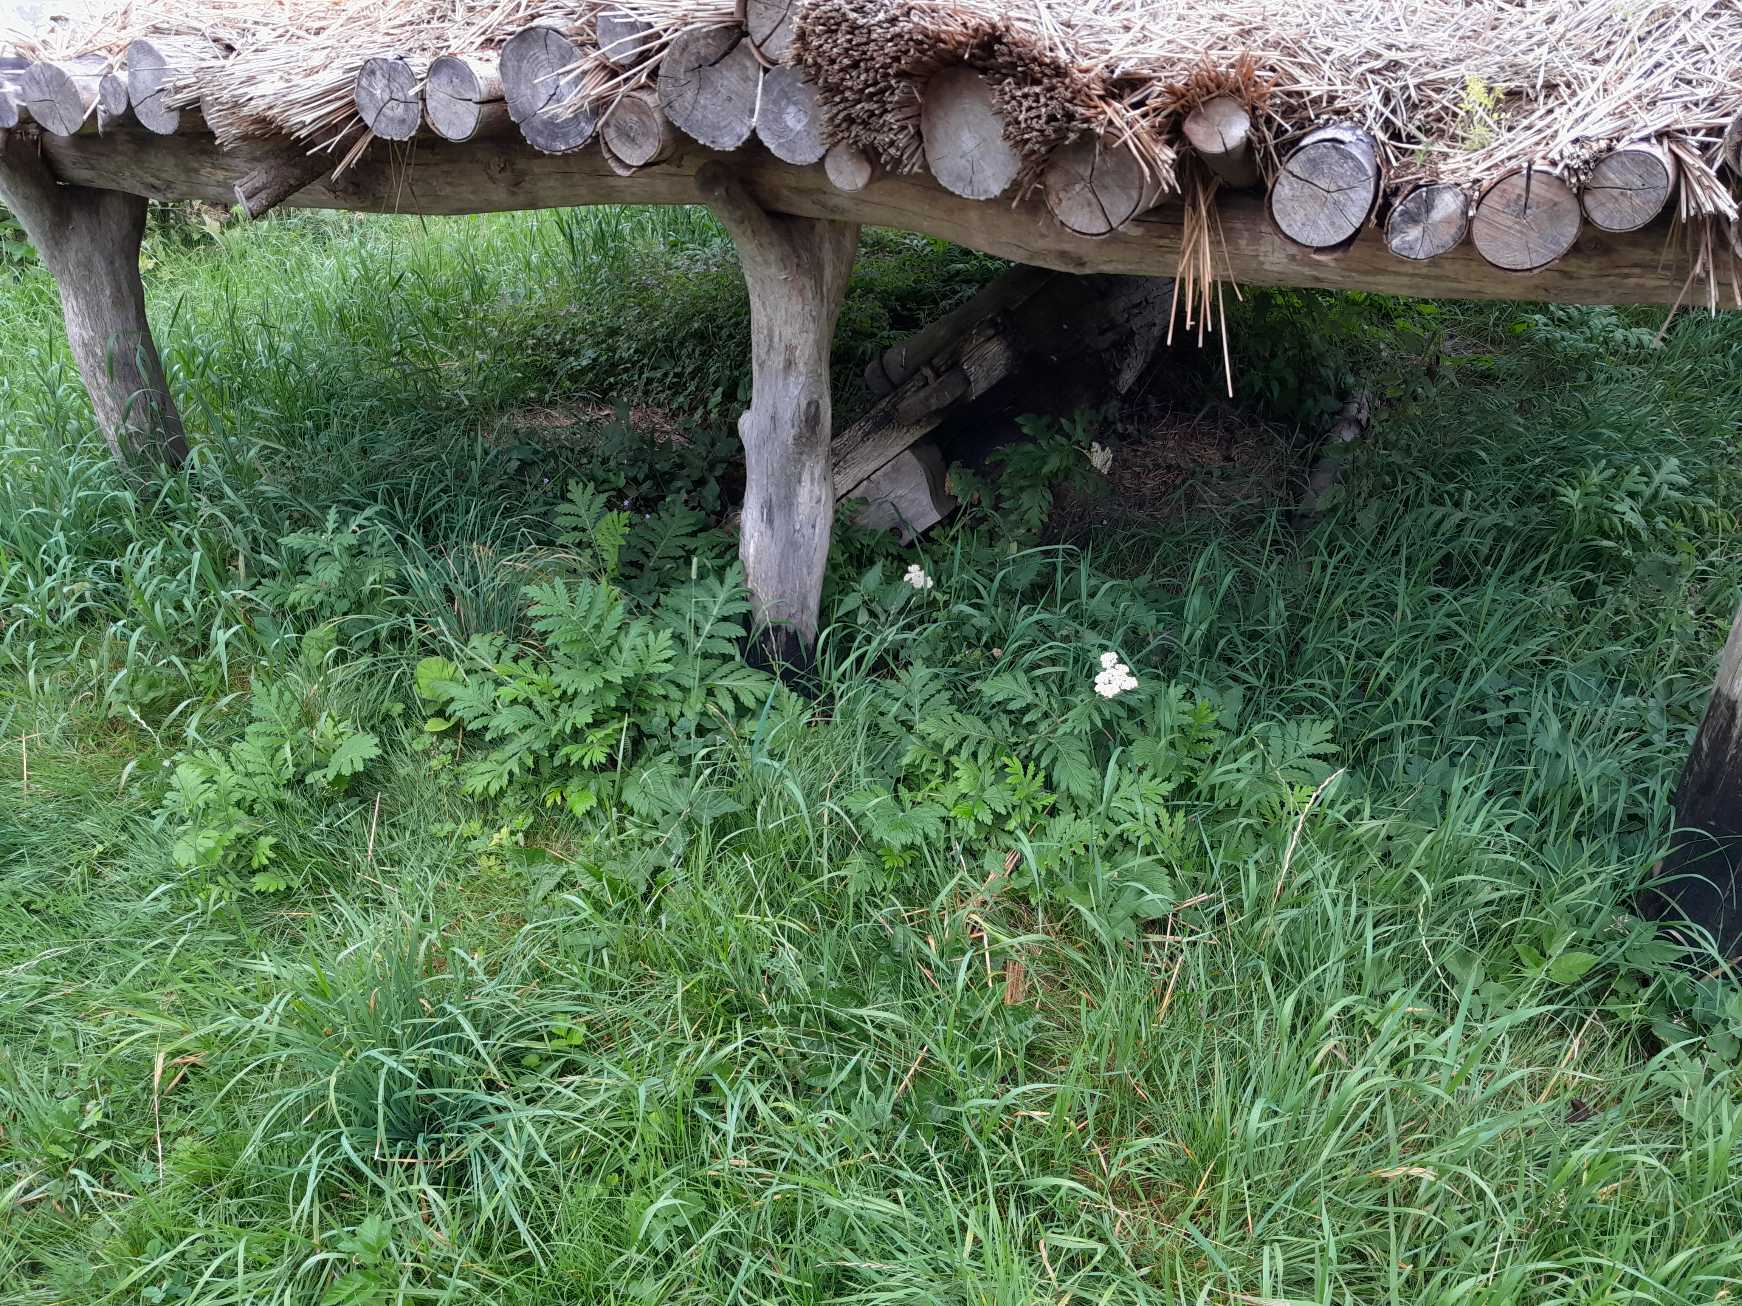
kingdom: Plantae
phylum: Tracheophyta
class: Magnoliopsida
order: Asterales
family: Asteraceae
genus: Tanacetum
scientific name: Tanacetum macrophyllum
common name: Røllike-matrem
